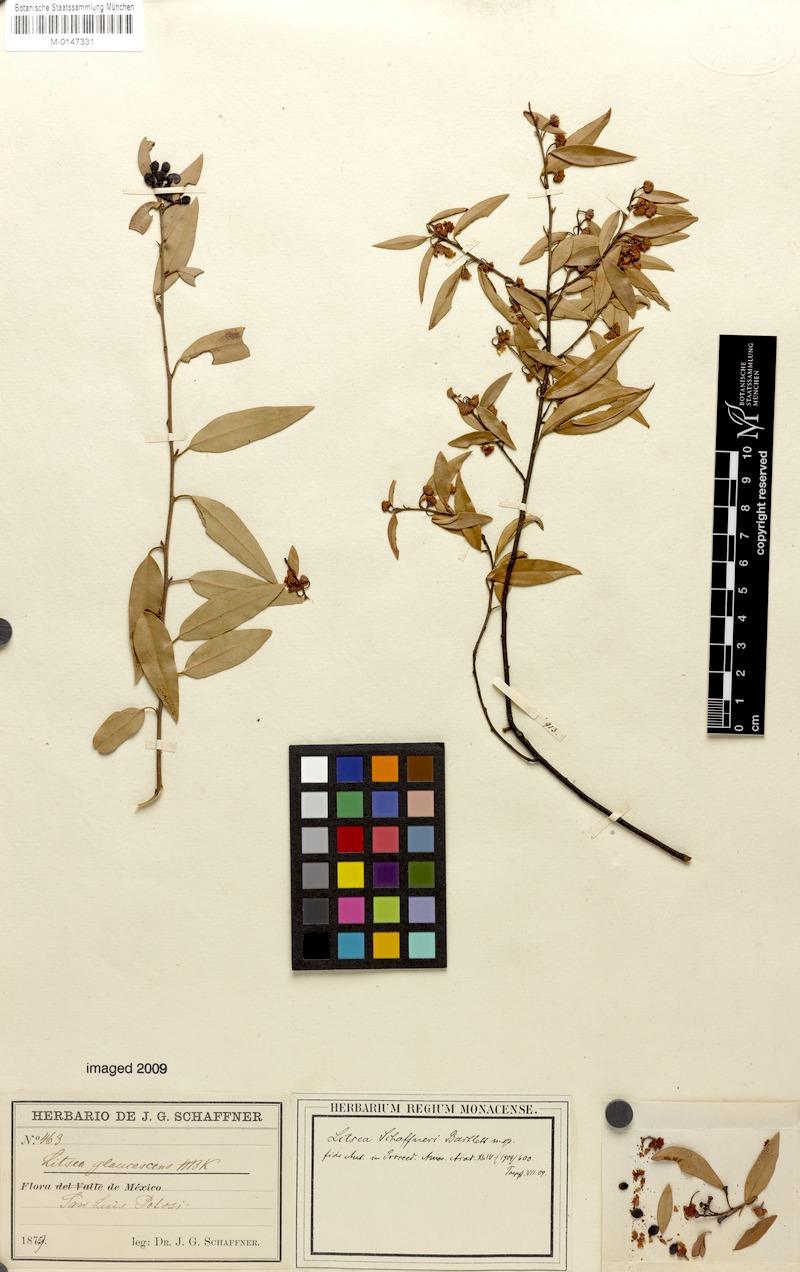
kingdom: Plantae
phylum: Tracheophyta
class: Magnoliopsida
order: Laurales
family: Lauraceae
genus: Licaria
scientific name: Licaria triandra
